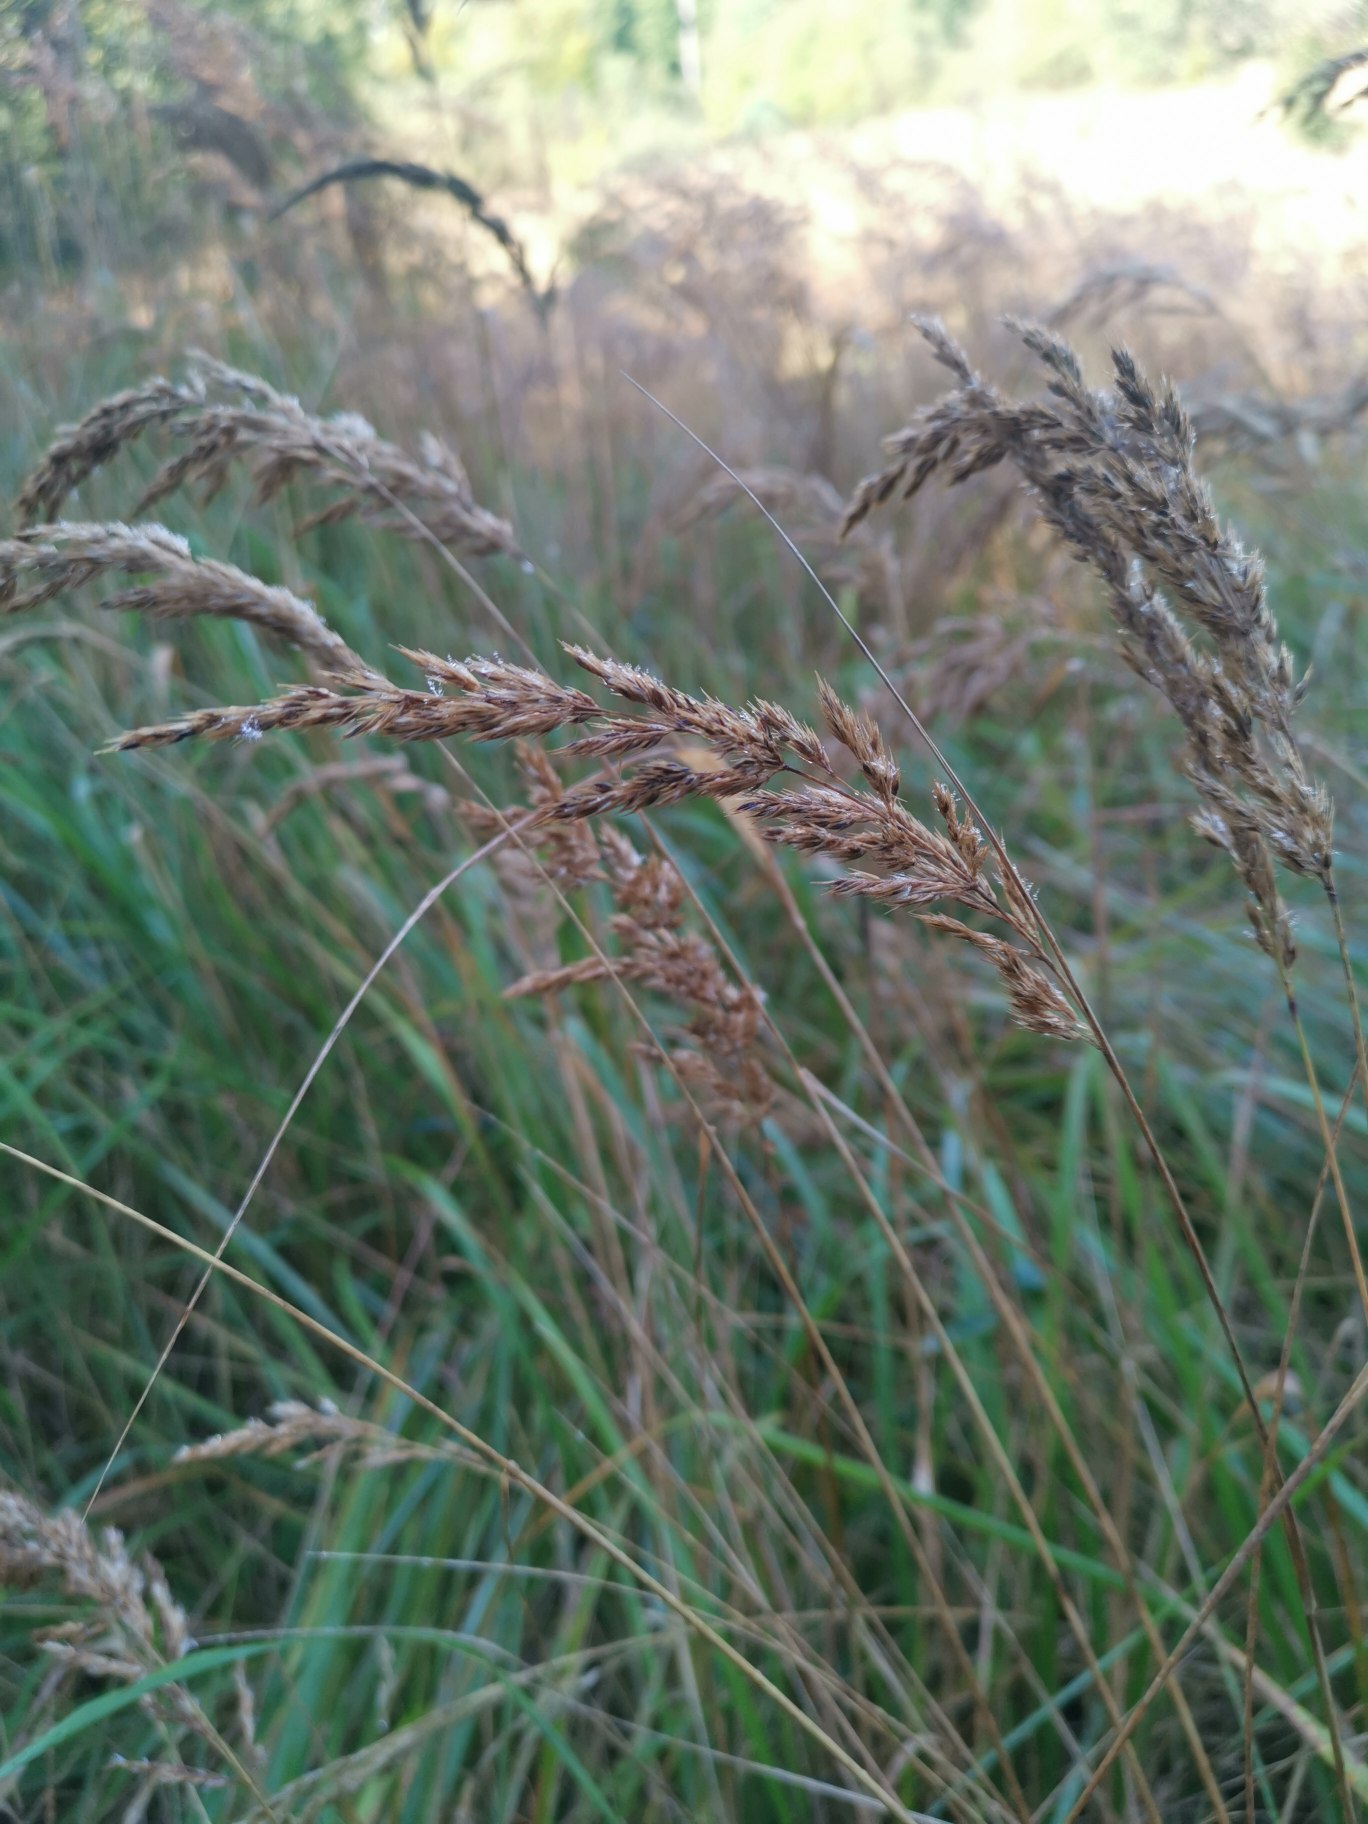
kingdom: Plantae
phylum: Tracheophyta
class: Liliopsida
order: Poales
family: Poaceae
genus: Calamagrostis
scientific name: Calamagrostis epigejos
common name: Bjerg-rørhvene
